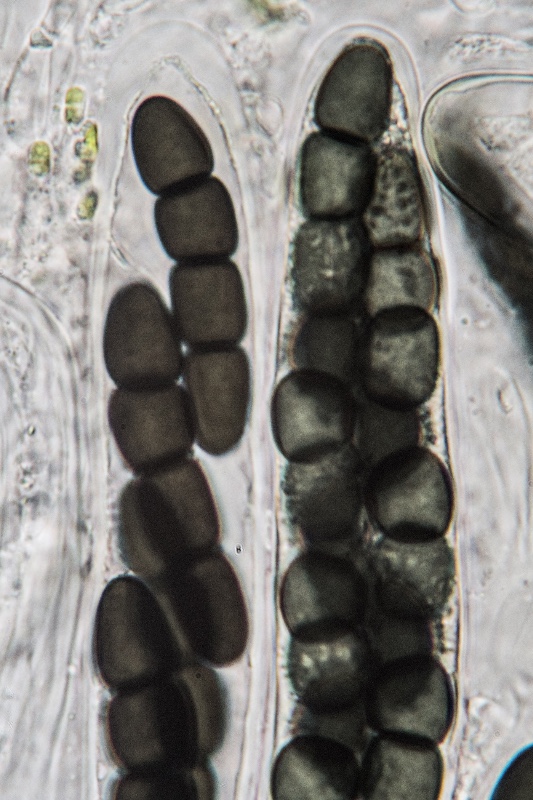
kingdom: Fungi
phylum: Ascomycota
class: Dothideomycetes
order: Pleosporales
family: Sporormiaceae
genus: Sporormiella
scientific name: Sporormiella grandispora
